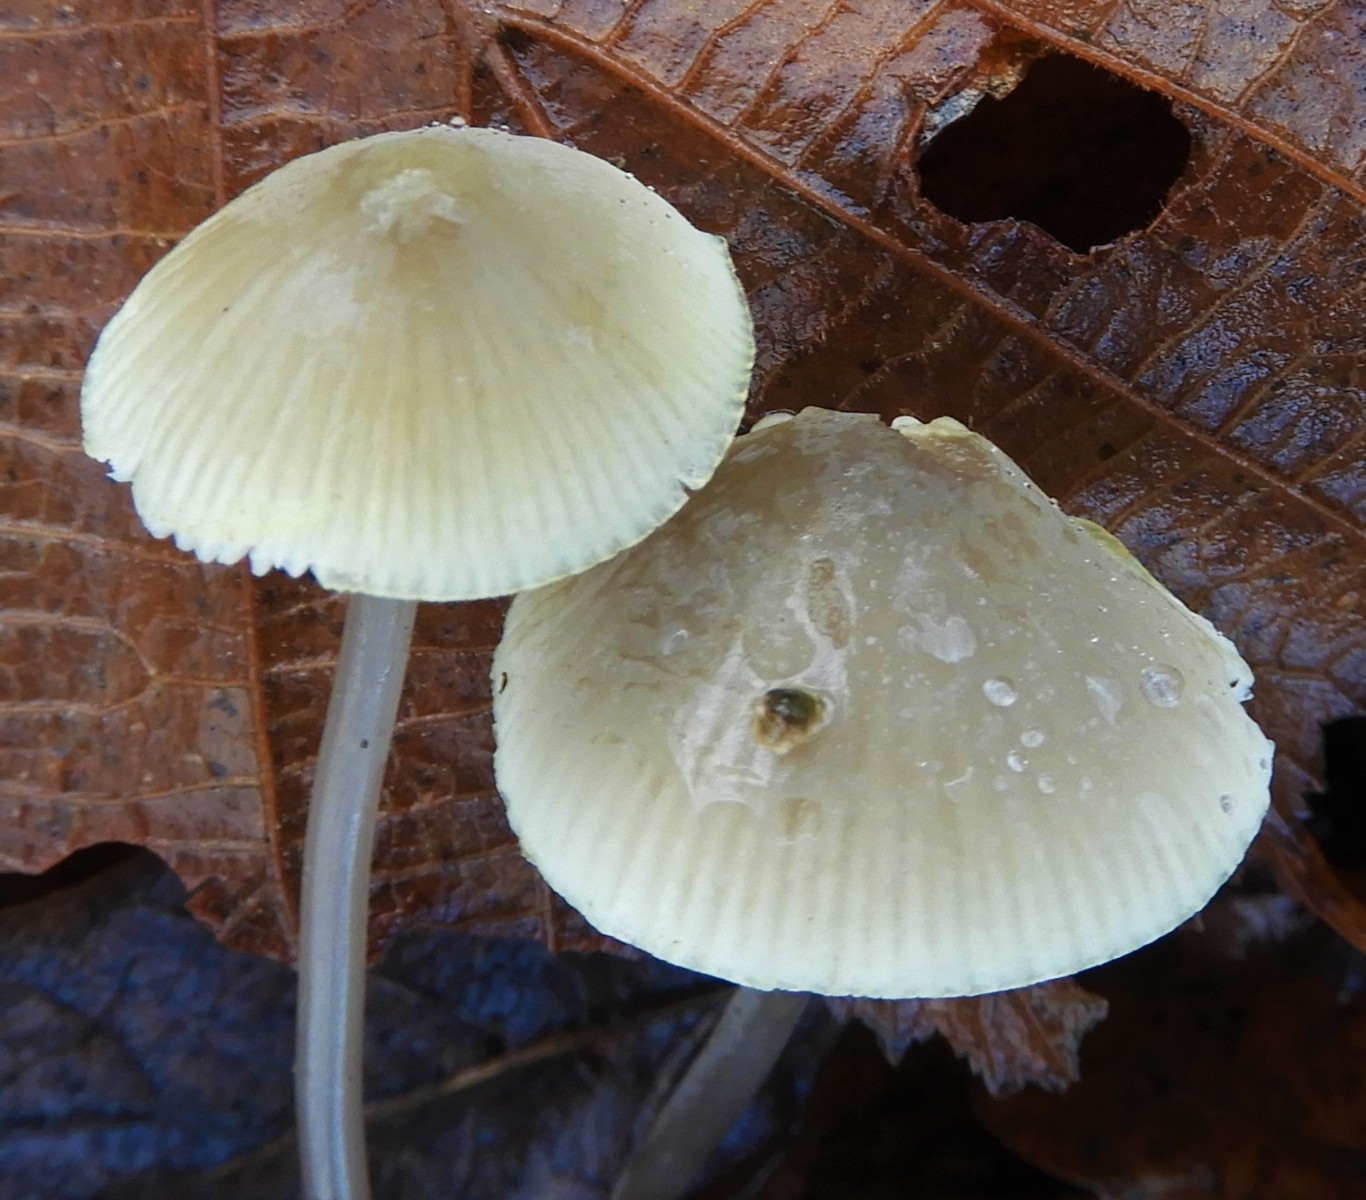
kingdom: Fungi
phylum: Basidiomycota
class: Agaricomycetes
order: Agaricales
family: Mycenaceae
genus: Mycena
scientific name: Mycena arcangeliana
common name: oliven-huesvamp
